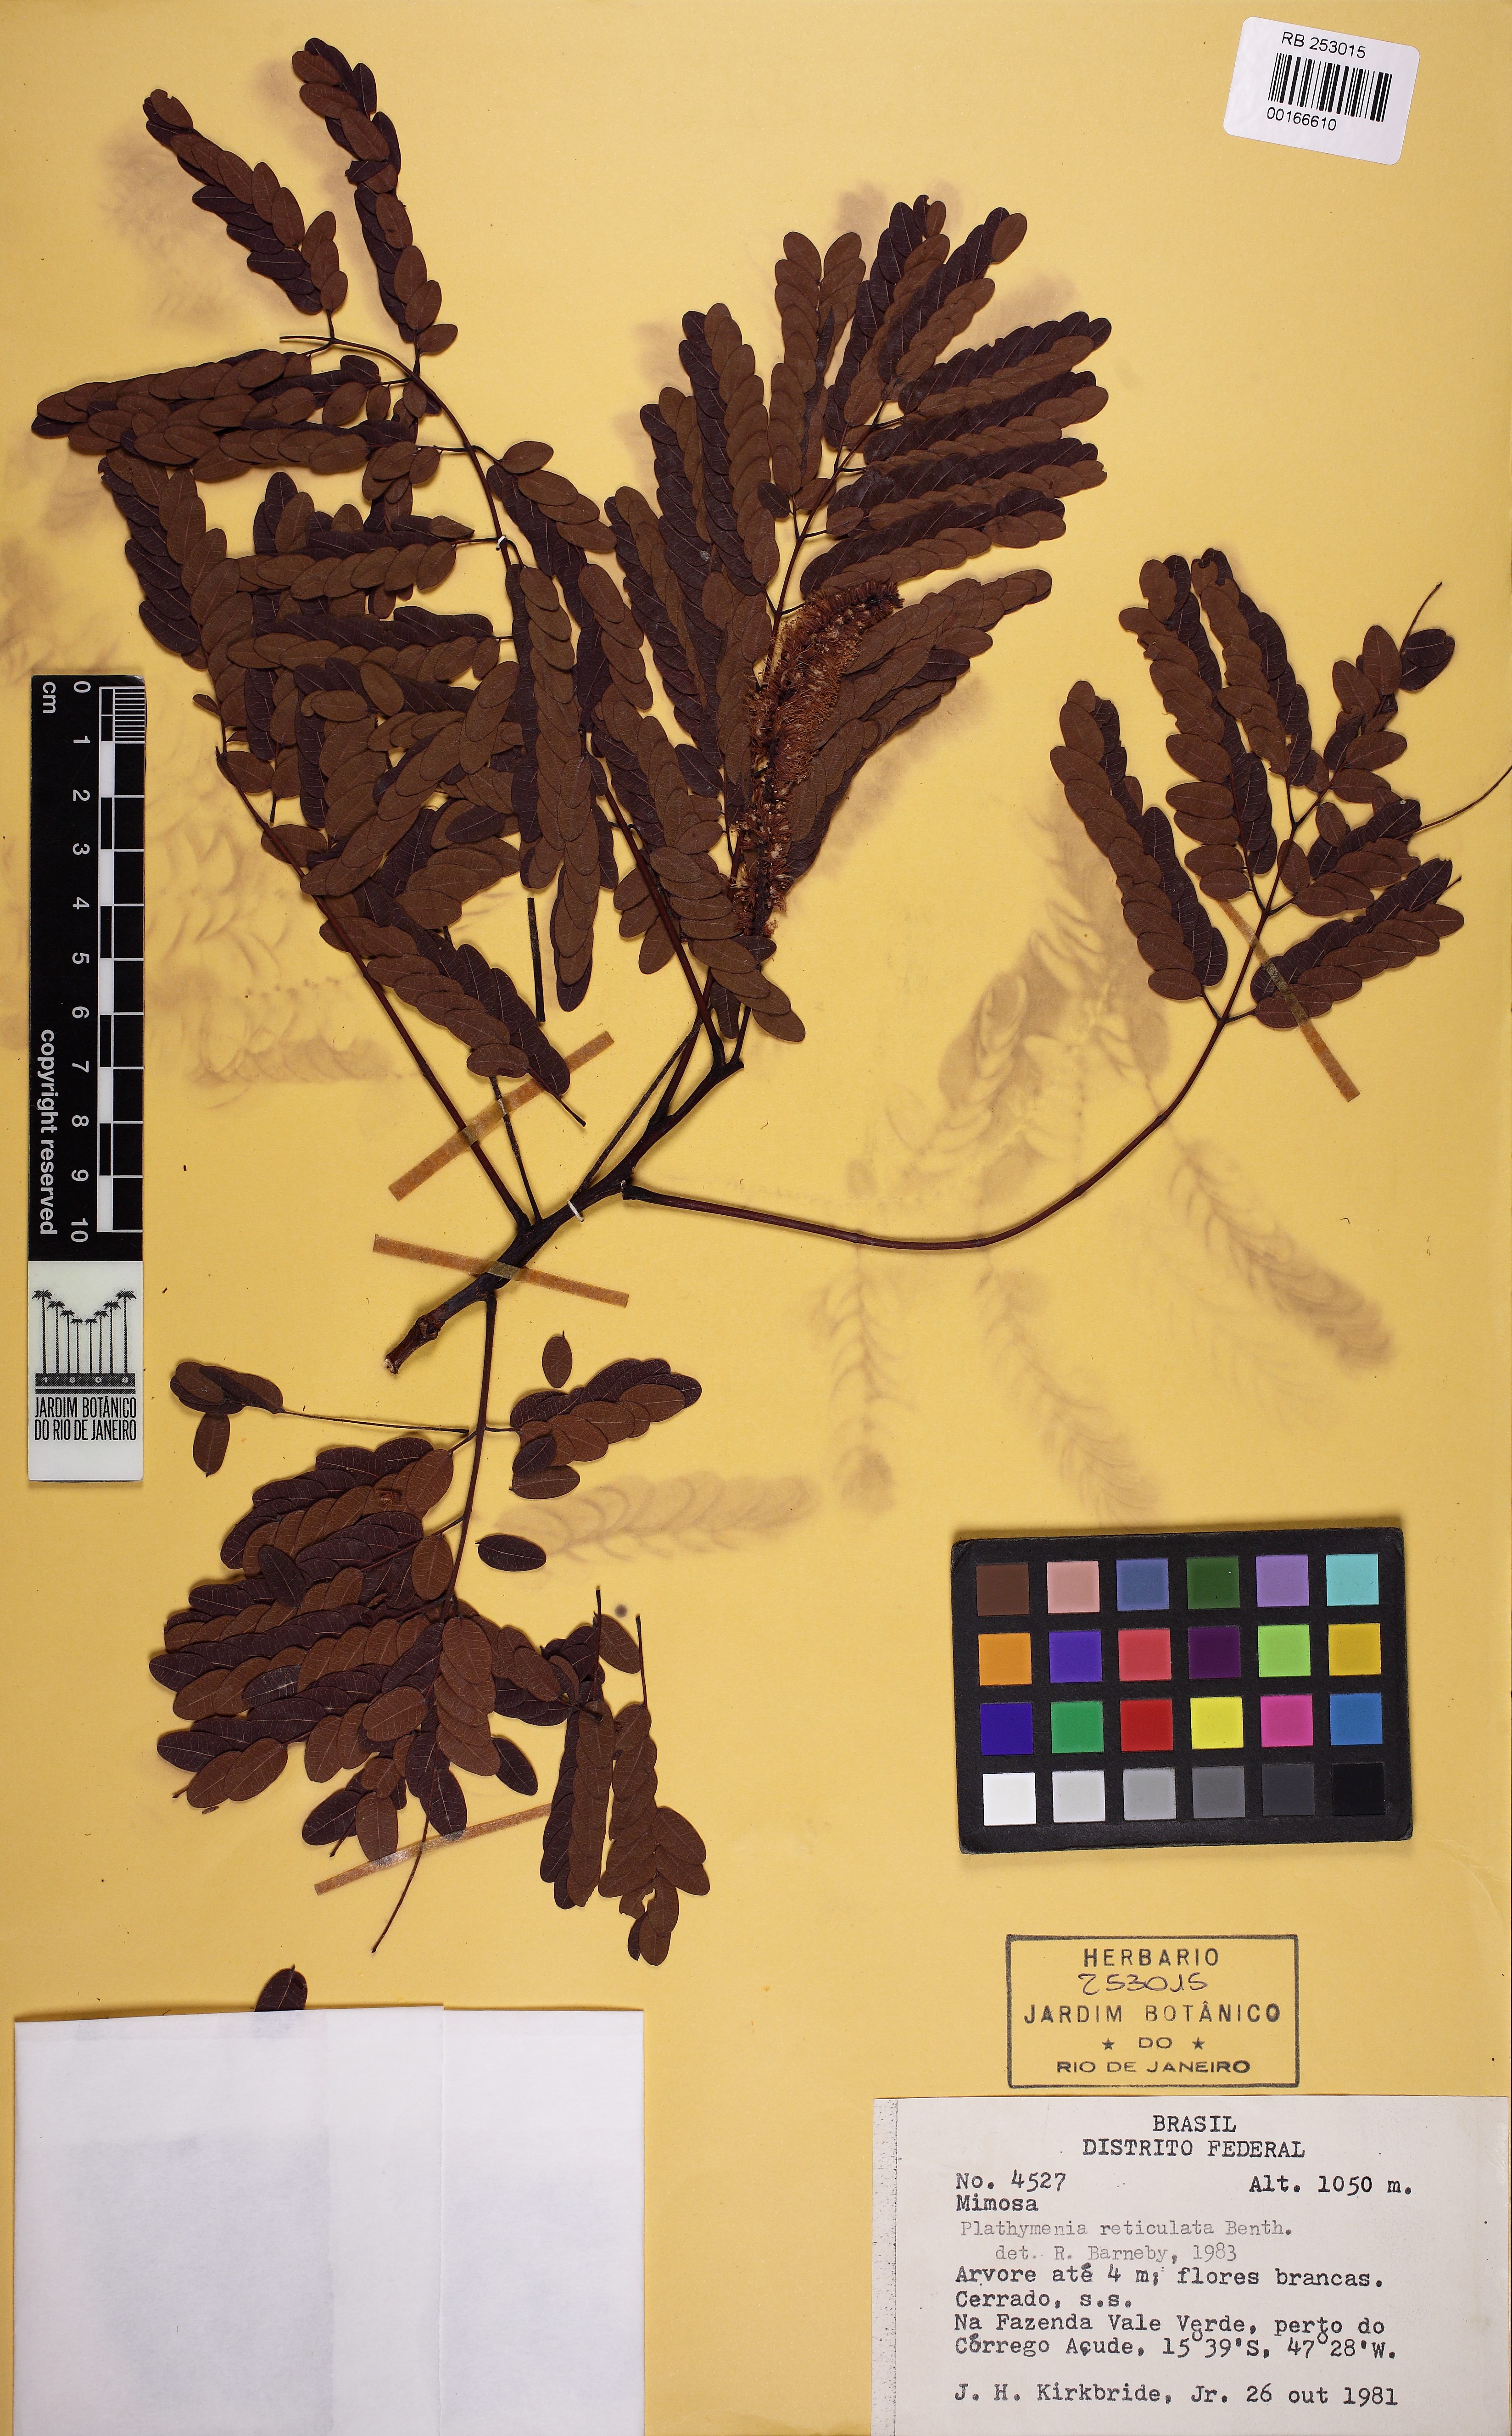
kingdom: Plantae
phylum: Tracheophyta
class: Magnoliopsida
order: Fabales
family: Fabaceae
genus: Plathymenia
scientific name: Plathymenia reticulata
